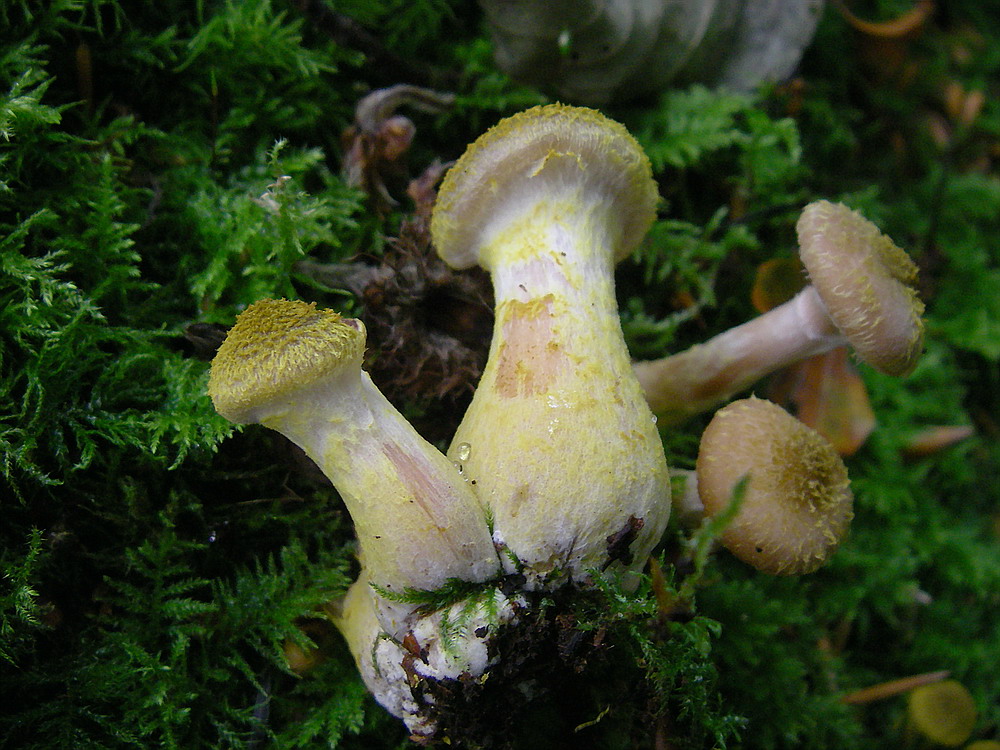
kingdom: Fungi
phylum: Basidiomycota
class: Agaricomycetes
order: Agaricales
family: Physalacriaceae
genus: Armillaria
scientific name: Armillaria lutea
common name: køllestokket honningsvamp
